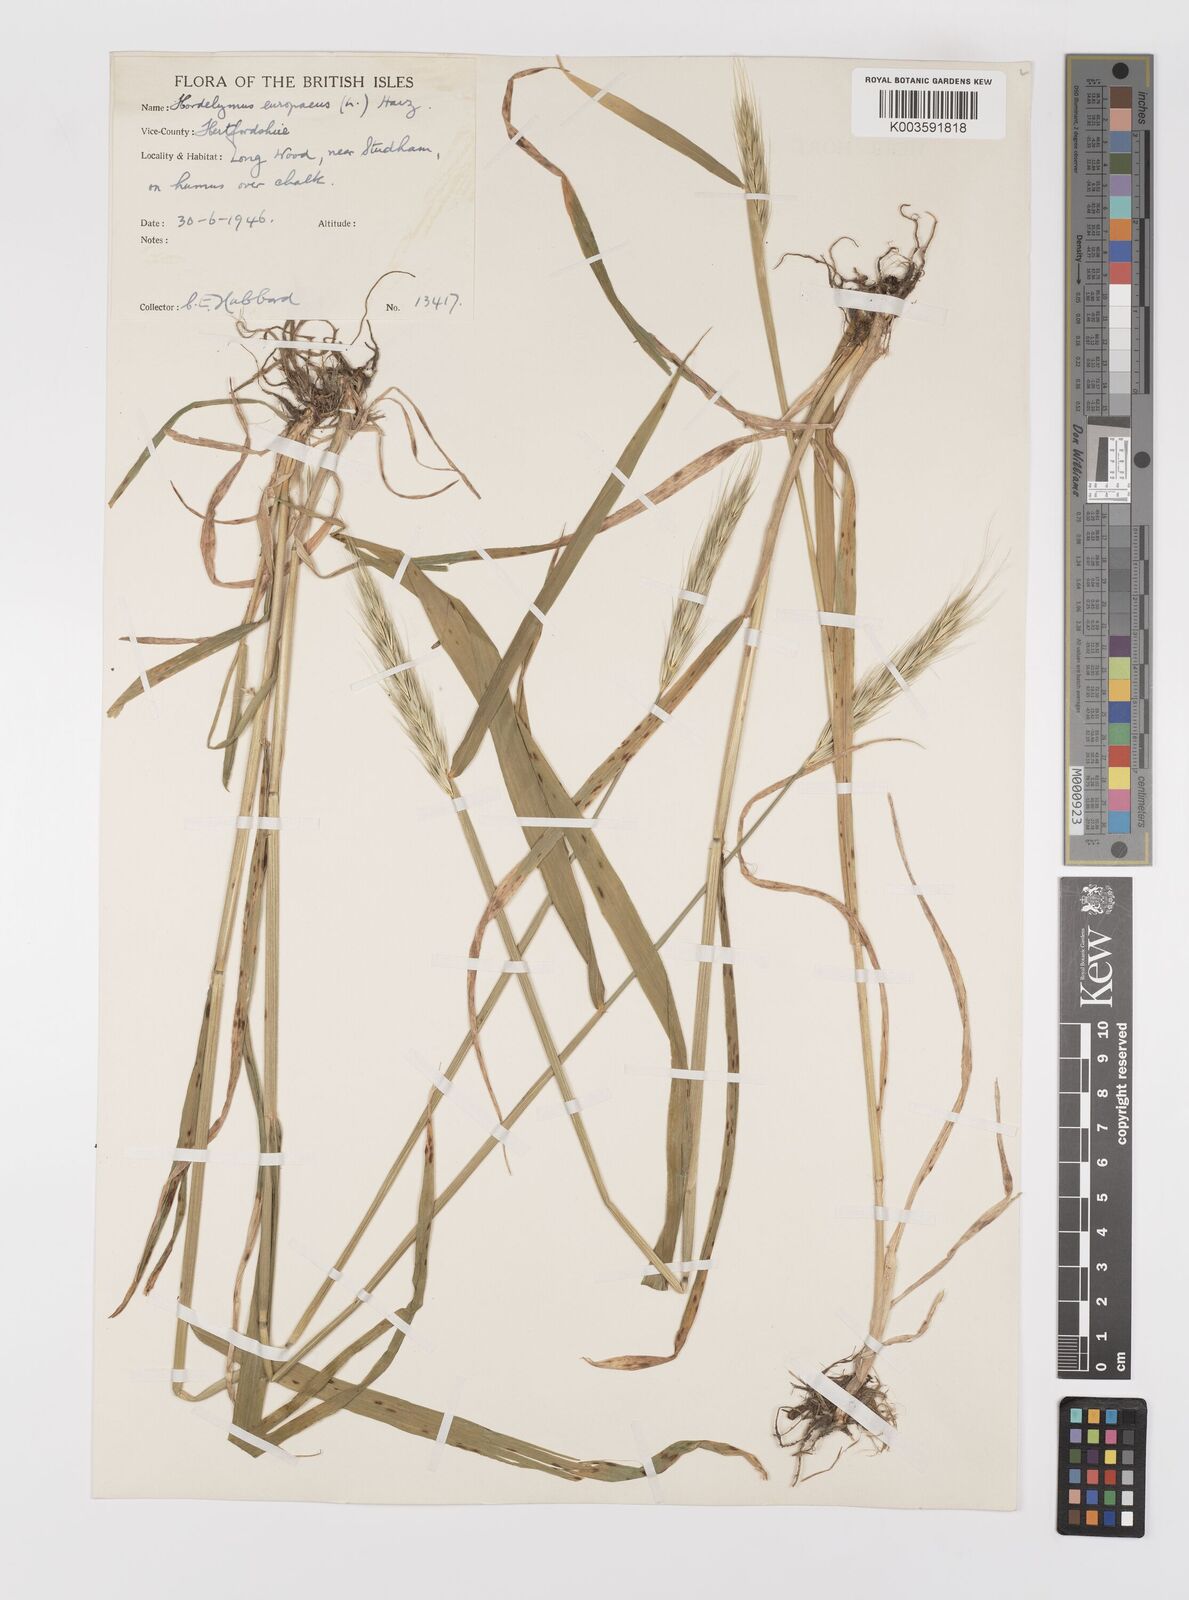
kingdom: Plantae
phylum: Tracheophyta
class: Liliopsida
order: Poales
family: Poaceae
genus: Hordelymus
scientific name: Hordelymus europaeus
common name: Wood-barley
